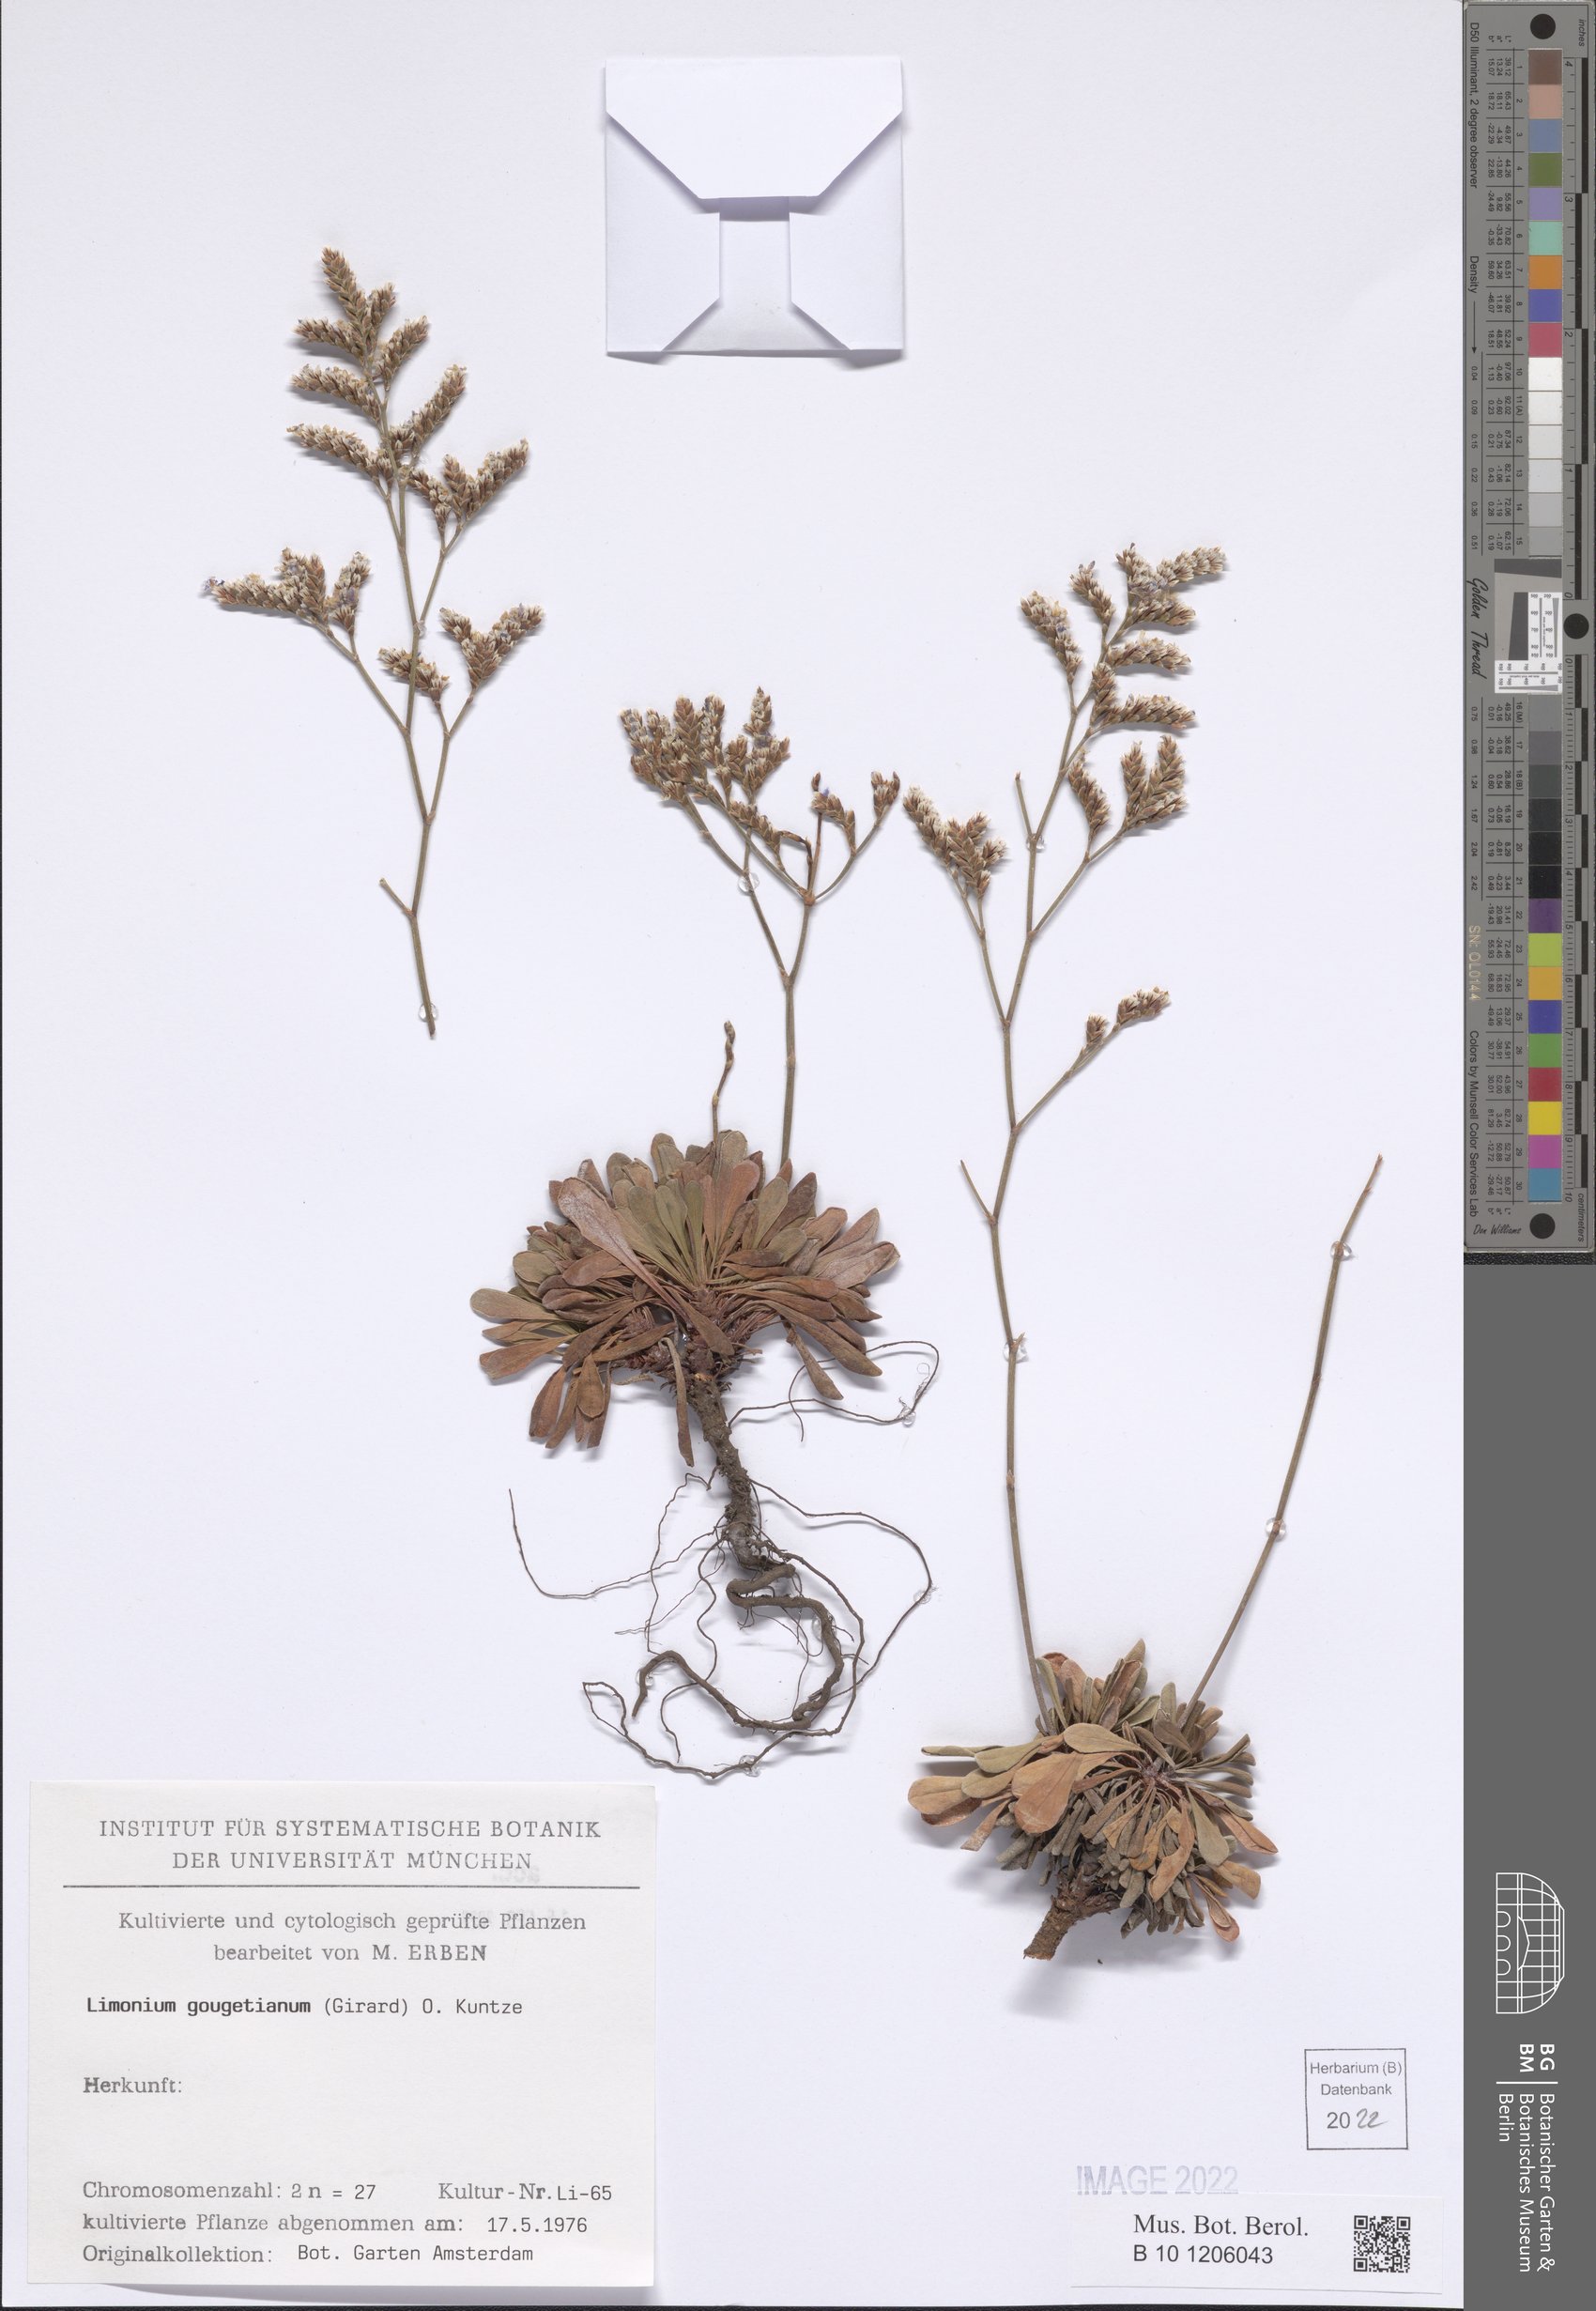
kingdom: Plantae
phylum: Tracheophyta
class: Magnoliopsida
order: Caryophyllales
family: Plumbaginaceae
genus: Limonium
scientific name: Limonium gougetianum
